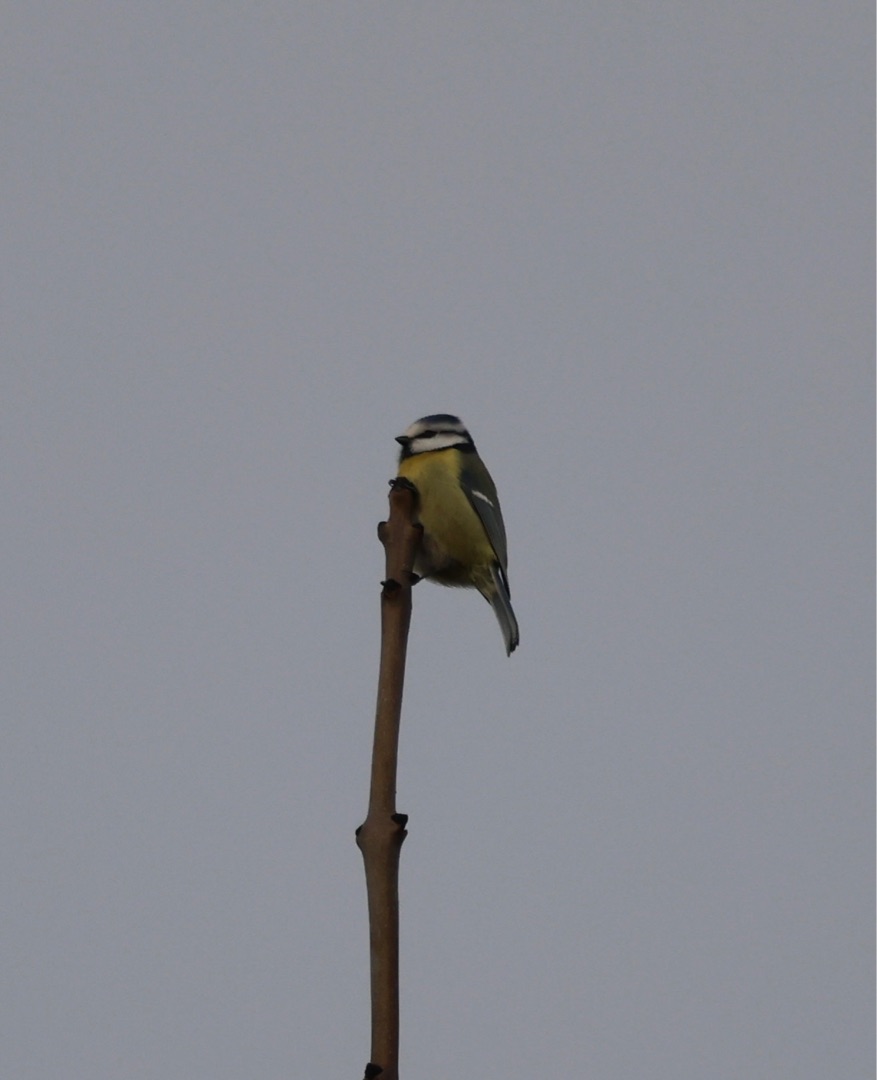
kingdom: Animalia
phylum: Chordata
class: Aves
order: Passeriformes
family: Paridae
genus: Cyanistes
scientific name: Cyanistes caeruleus
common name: Blåmejse
